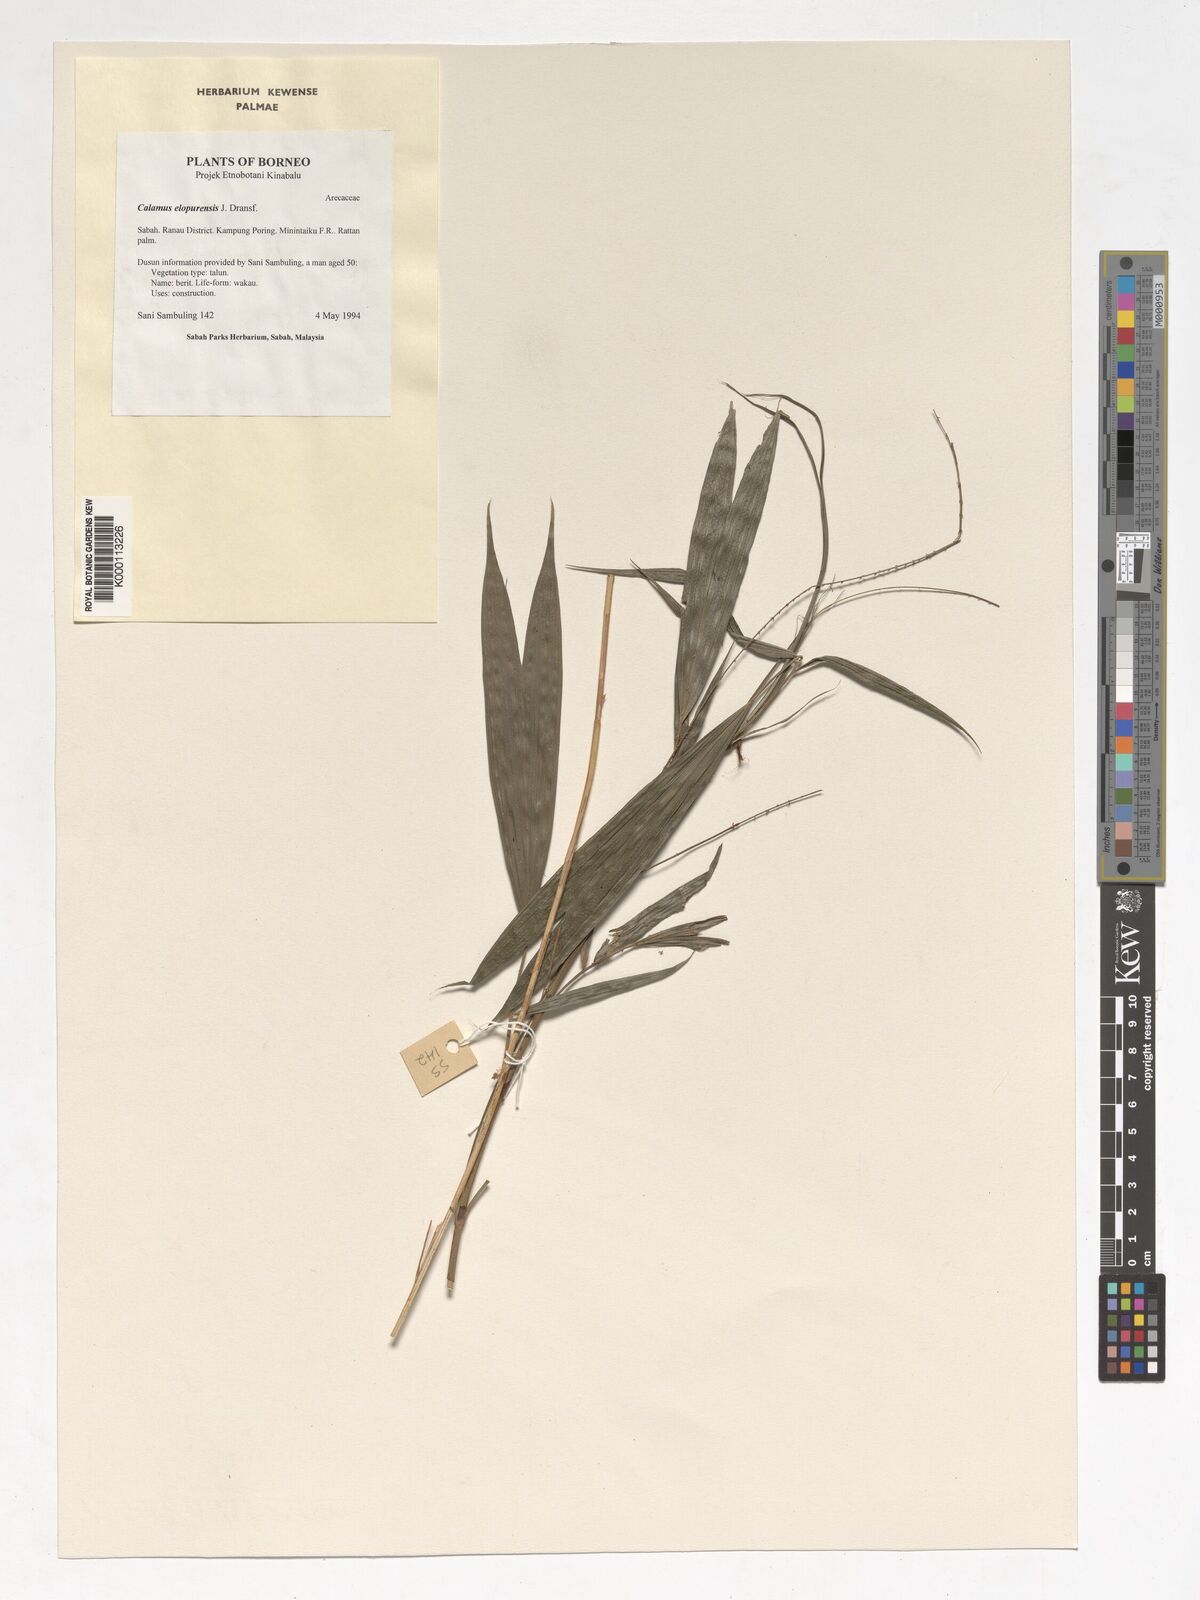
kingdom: Plantae
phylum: Tracheophyta
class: Liliopsida
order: Arecales
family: Arecaceae
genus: Calamus
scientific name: Calamus javensis
